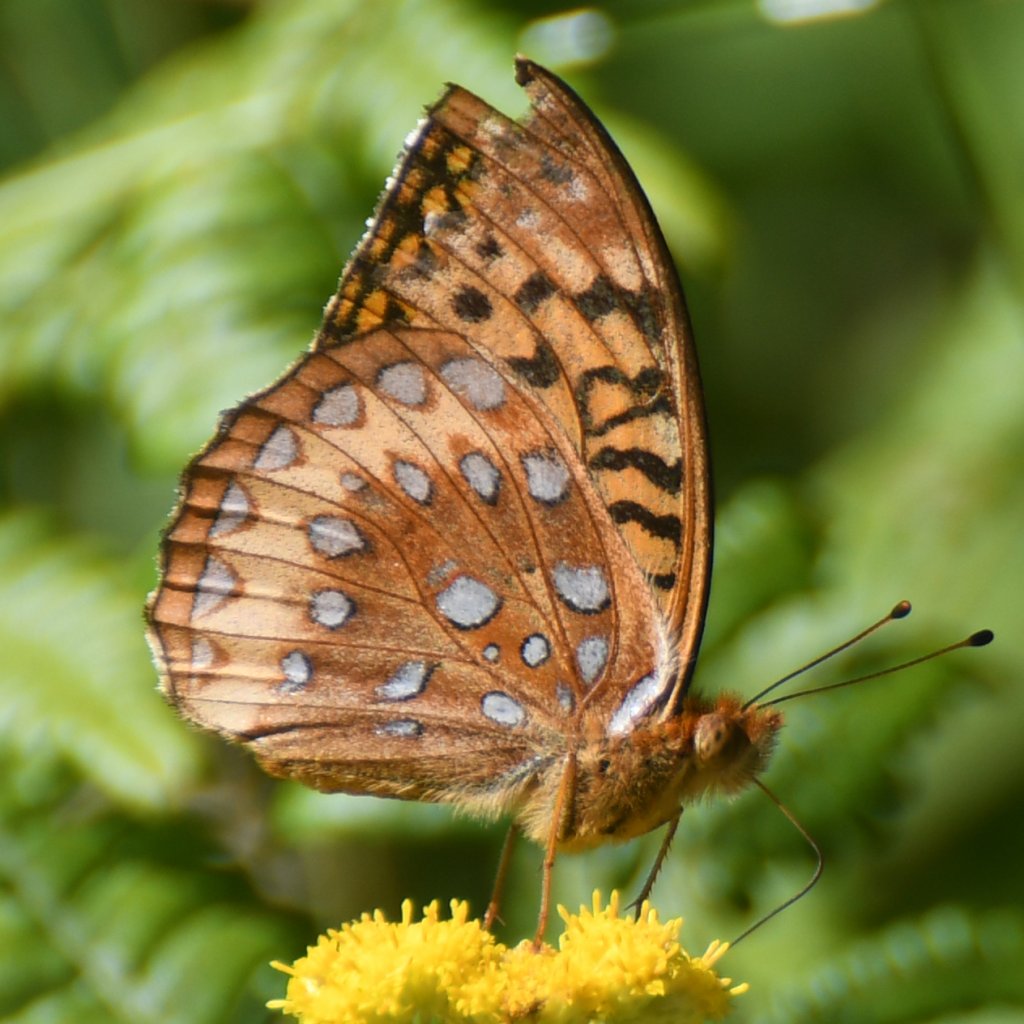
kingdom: Animalia
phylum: Arthropoda
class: Insecta
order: Lepidoptera
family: Nymphalidae
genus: Speyeria
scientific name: Speyeria cybele
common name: Great Spangled Fritillary
